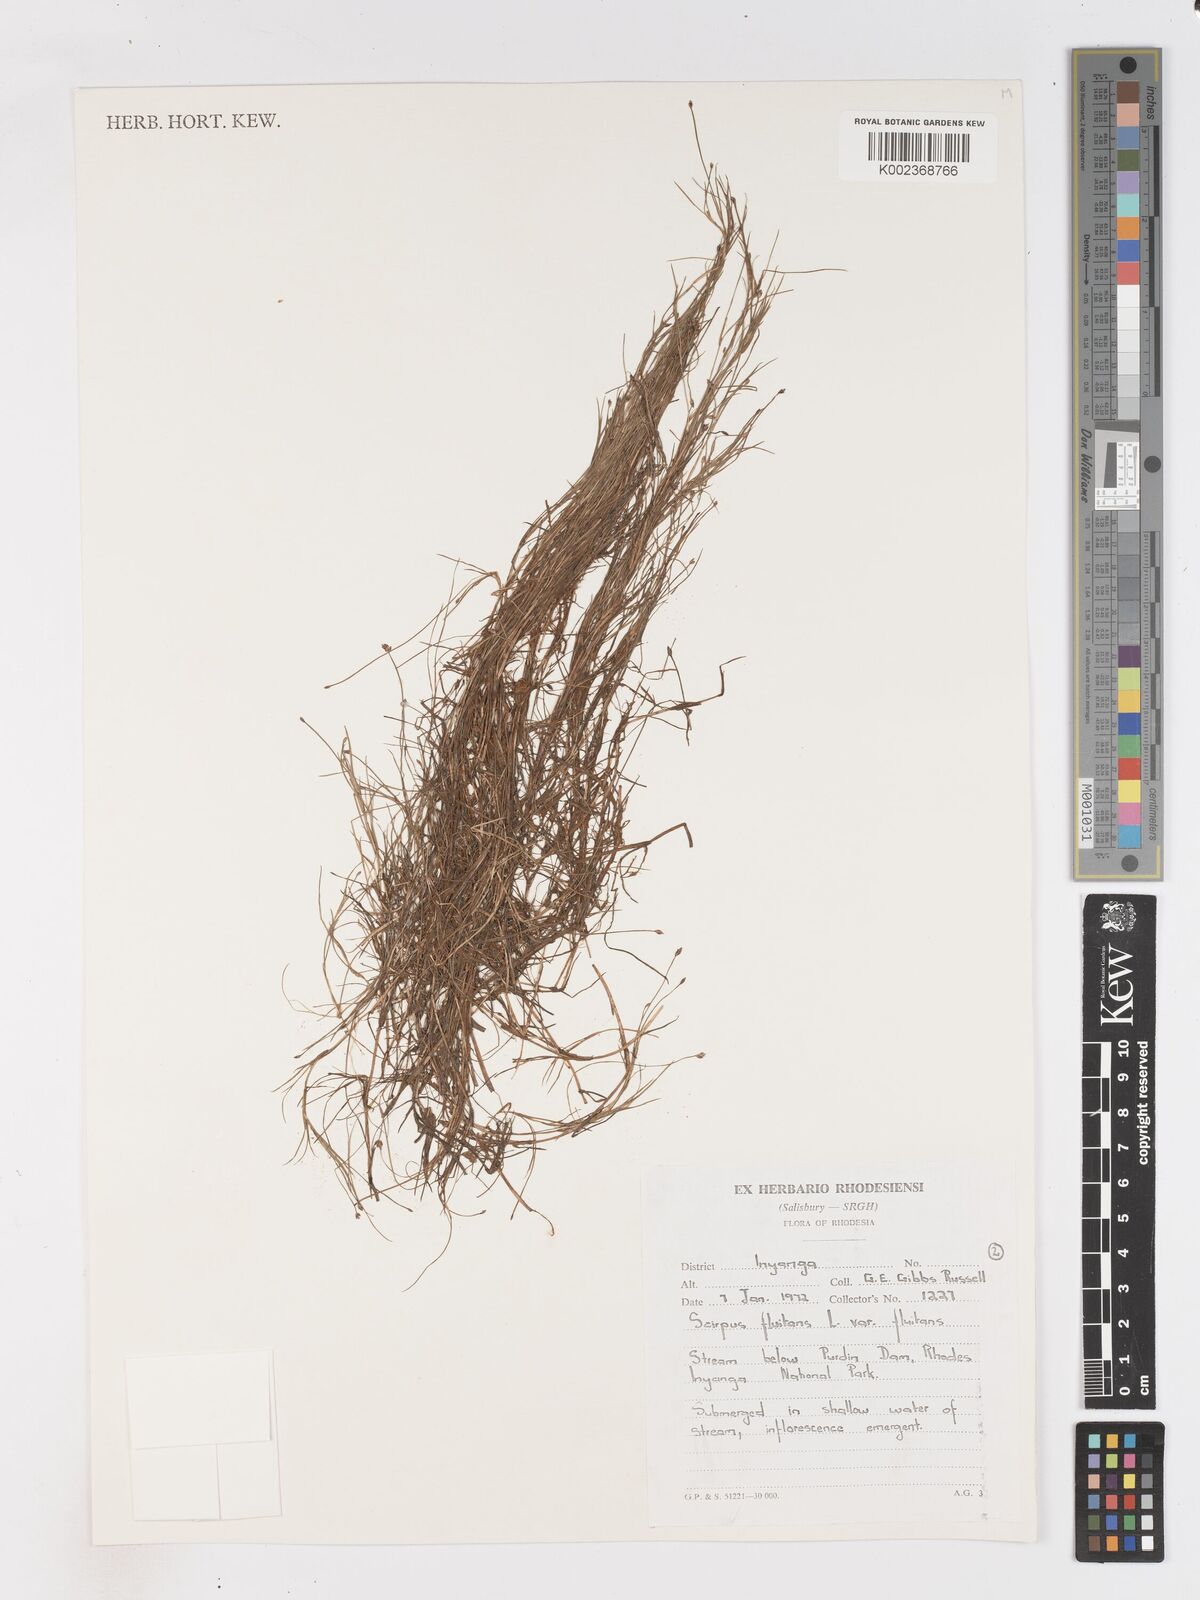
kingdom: Plantae
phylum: Tracheophyta
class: Liliopsida
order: Poales
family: Cyperaceae
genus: Isolepis
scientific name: Isolepis fluitans
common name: Floating club-rush
